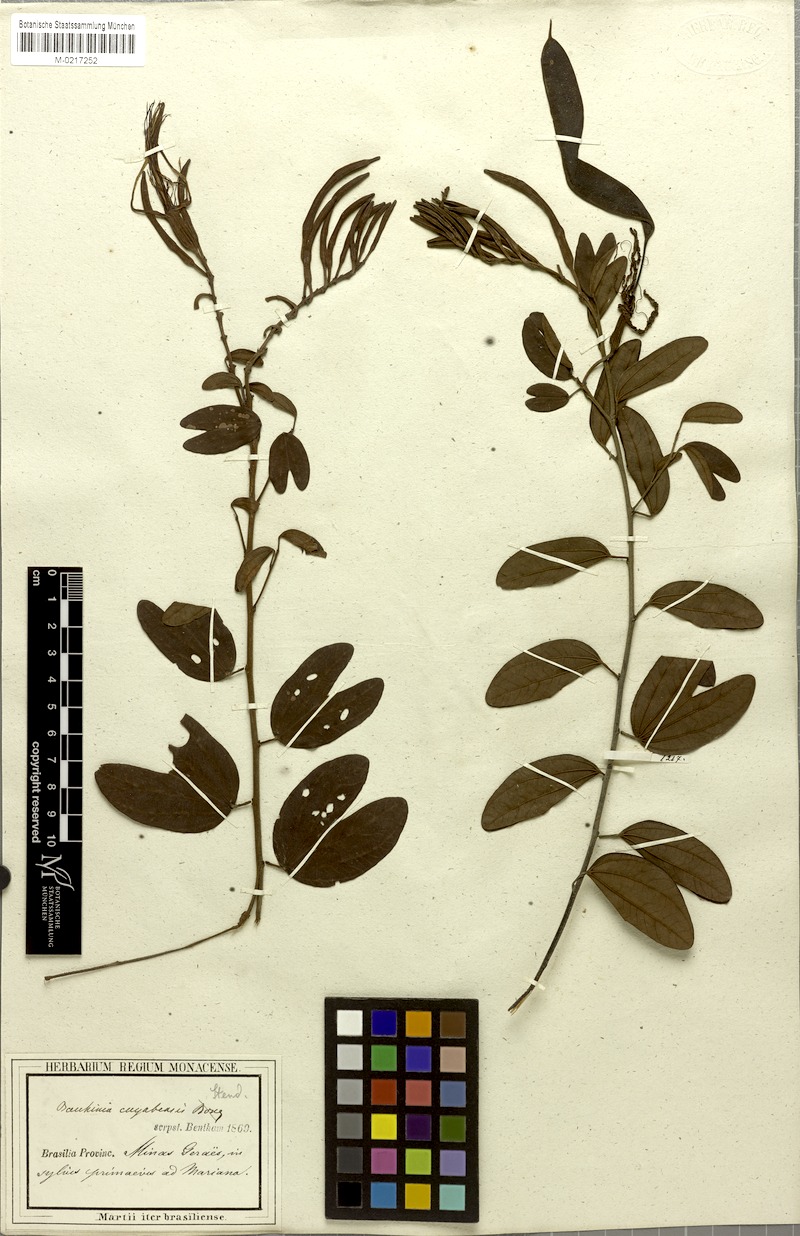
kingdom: Plantae
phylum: Tracheophyta
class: Magnoliopsida
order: Fabales
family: Fabaceae
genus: Bauhinia
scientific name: Bauhinia ungulata
